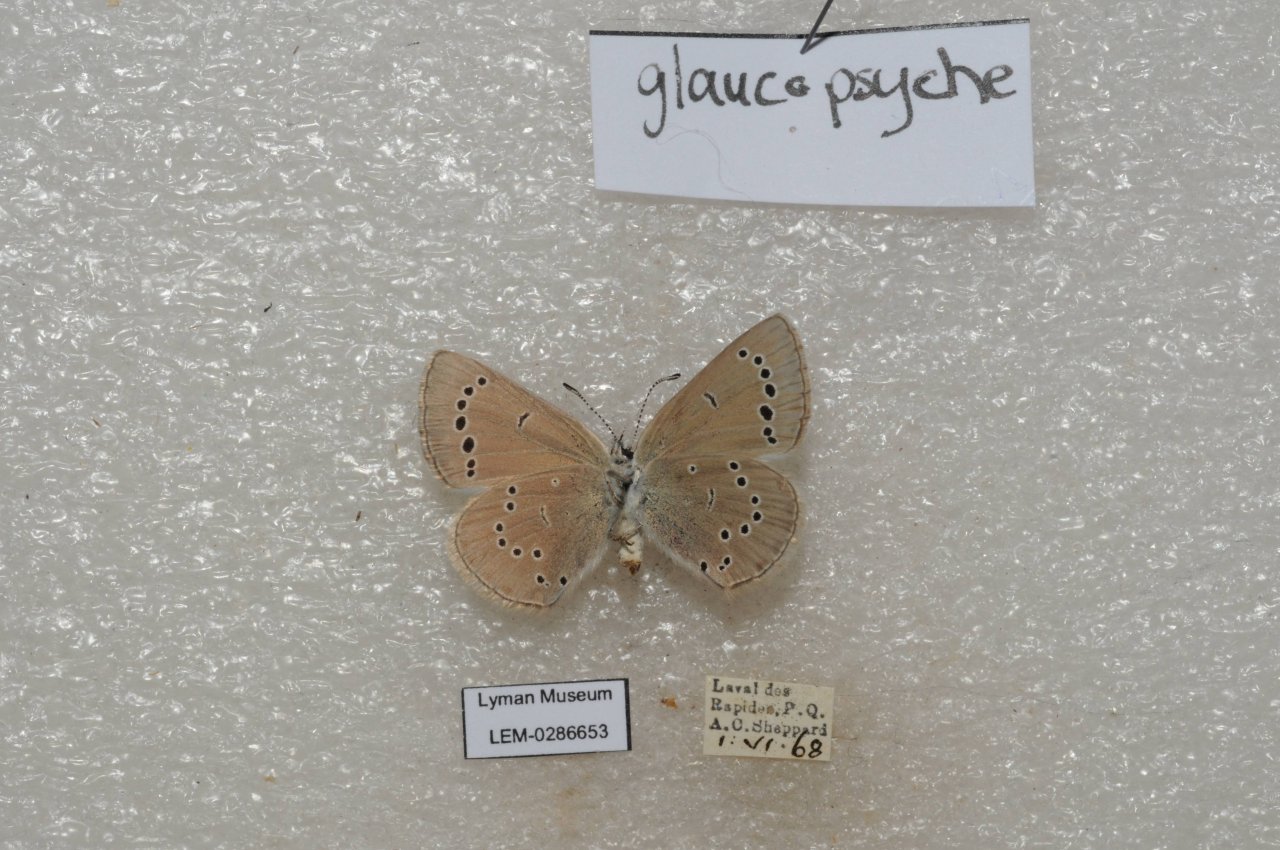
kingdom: Animalia
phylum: Arthropoda
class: Insecta
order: Lepidoptera
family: Lycaenidae
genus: Glaucopsyche
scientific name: Glaucopsyche lygdamus
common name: Silvery Blue
